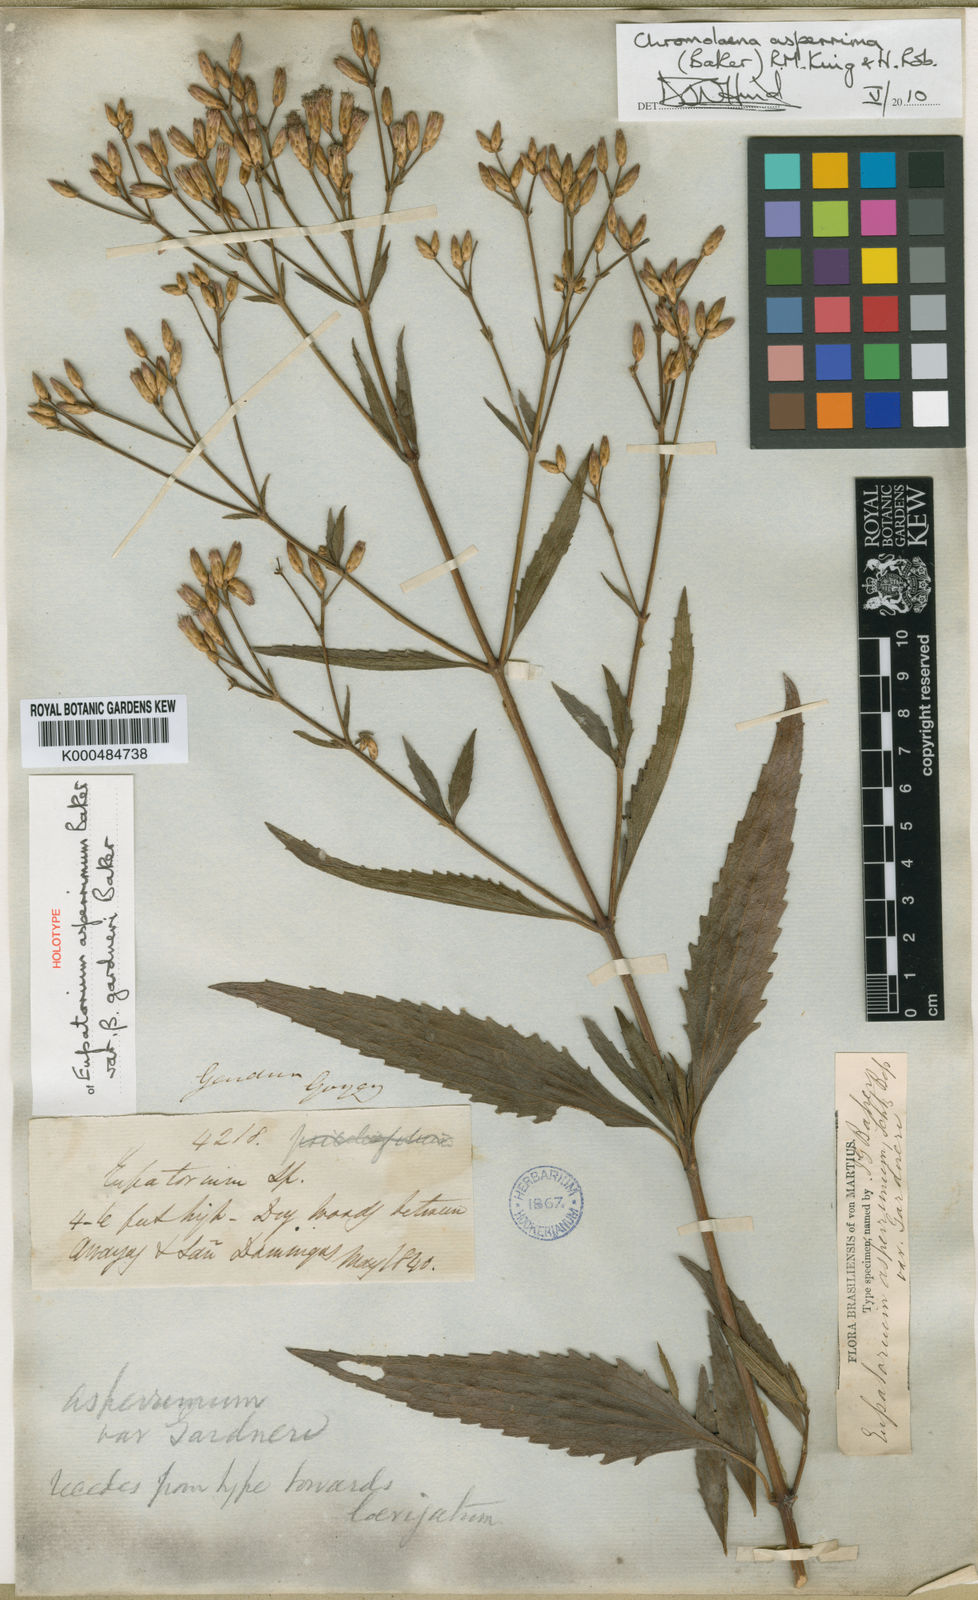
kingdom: Plantae
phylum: Tracheophyta
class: Magnoliopsida
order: Asterales
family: Asteraceae
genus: Chromolaena
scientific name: Chromolaena asperrima
